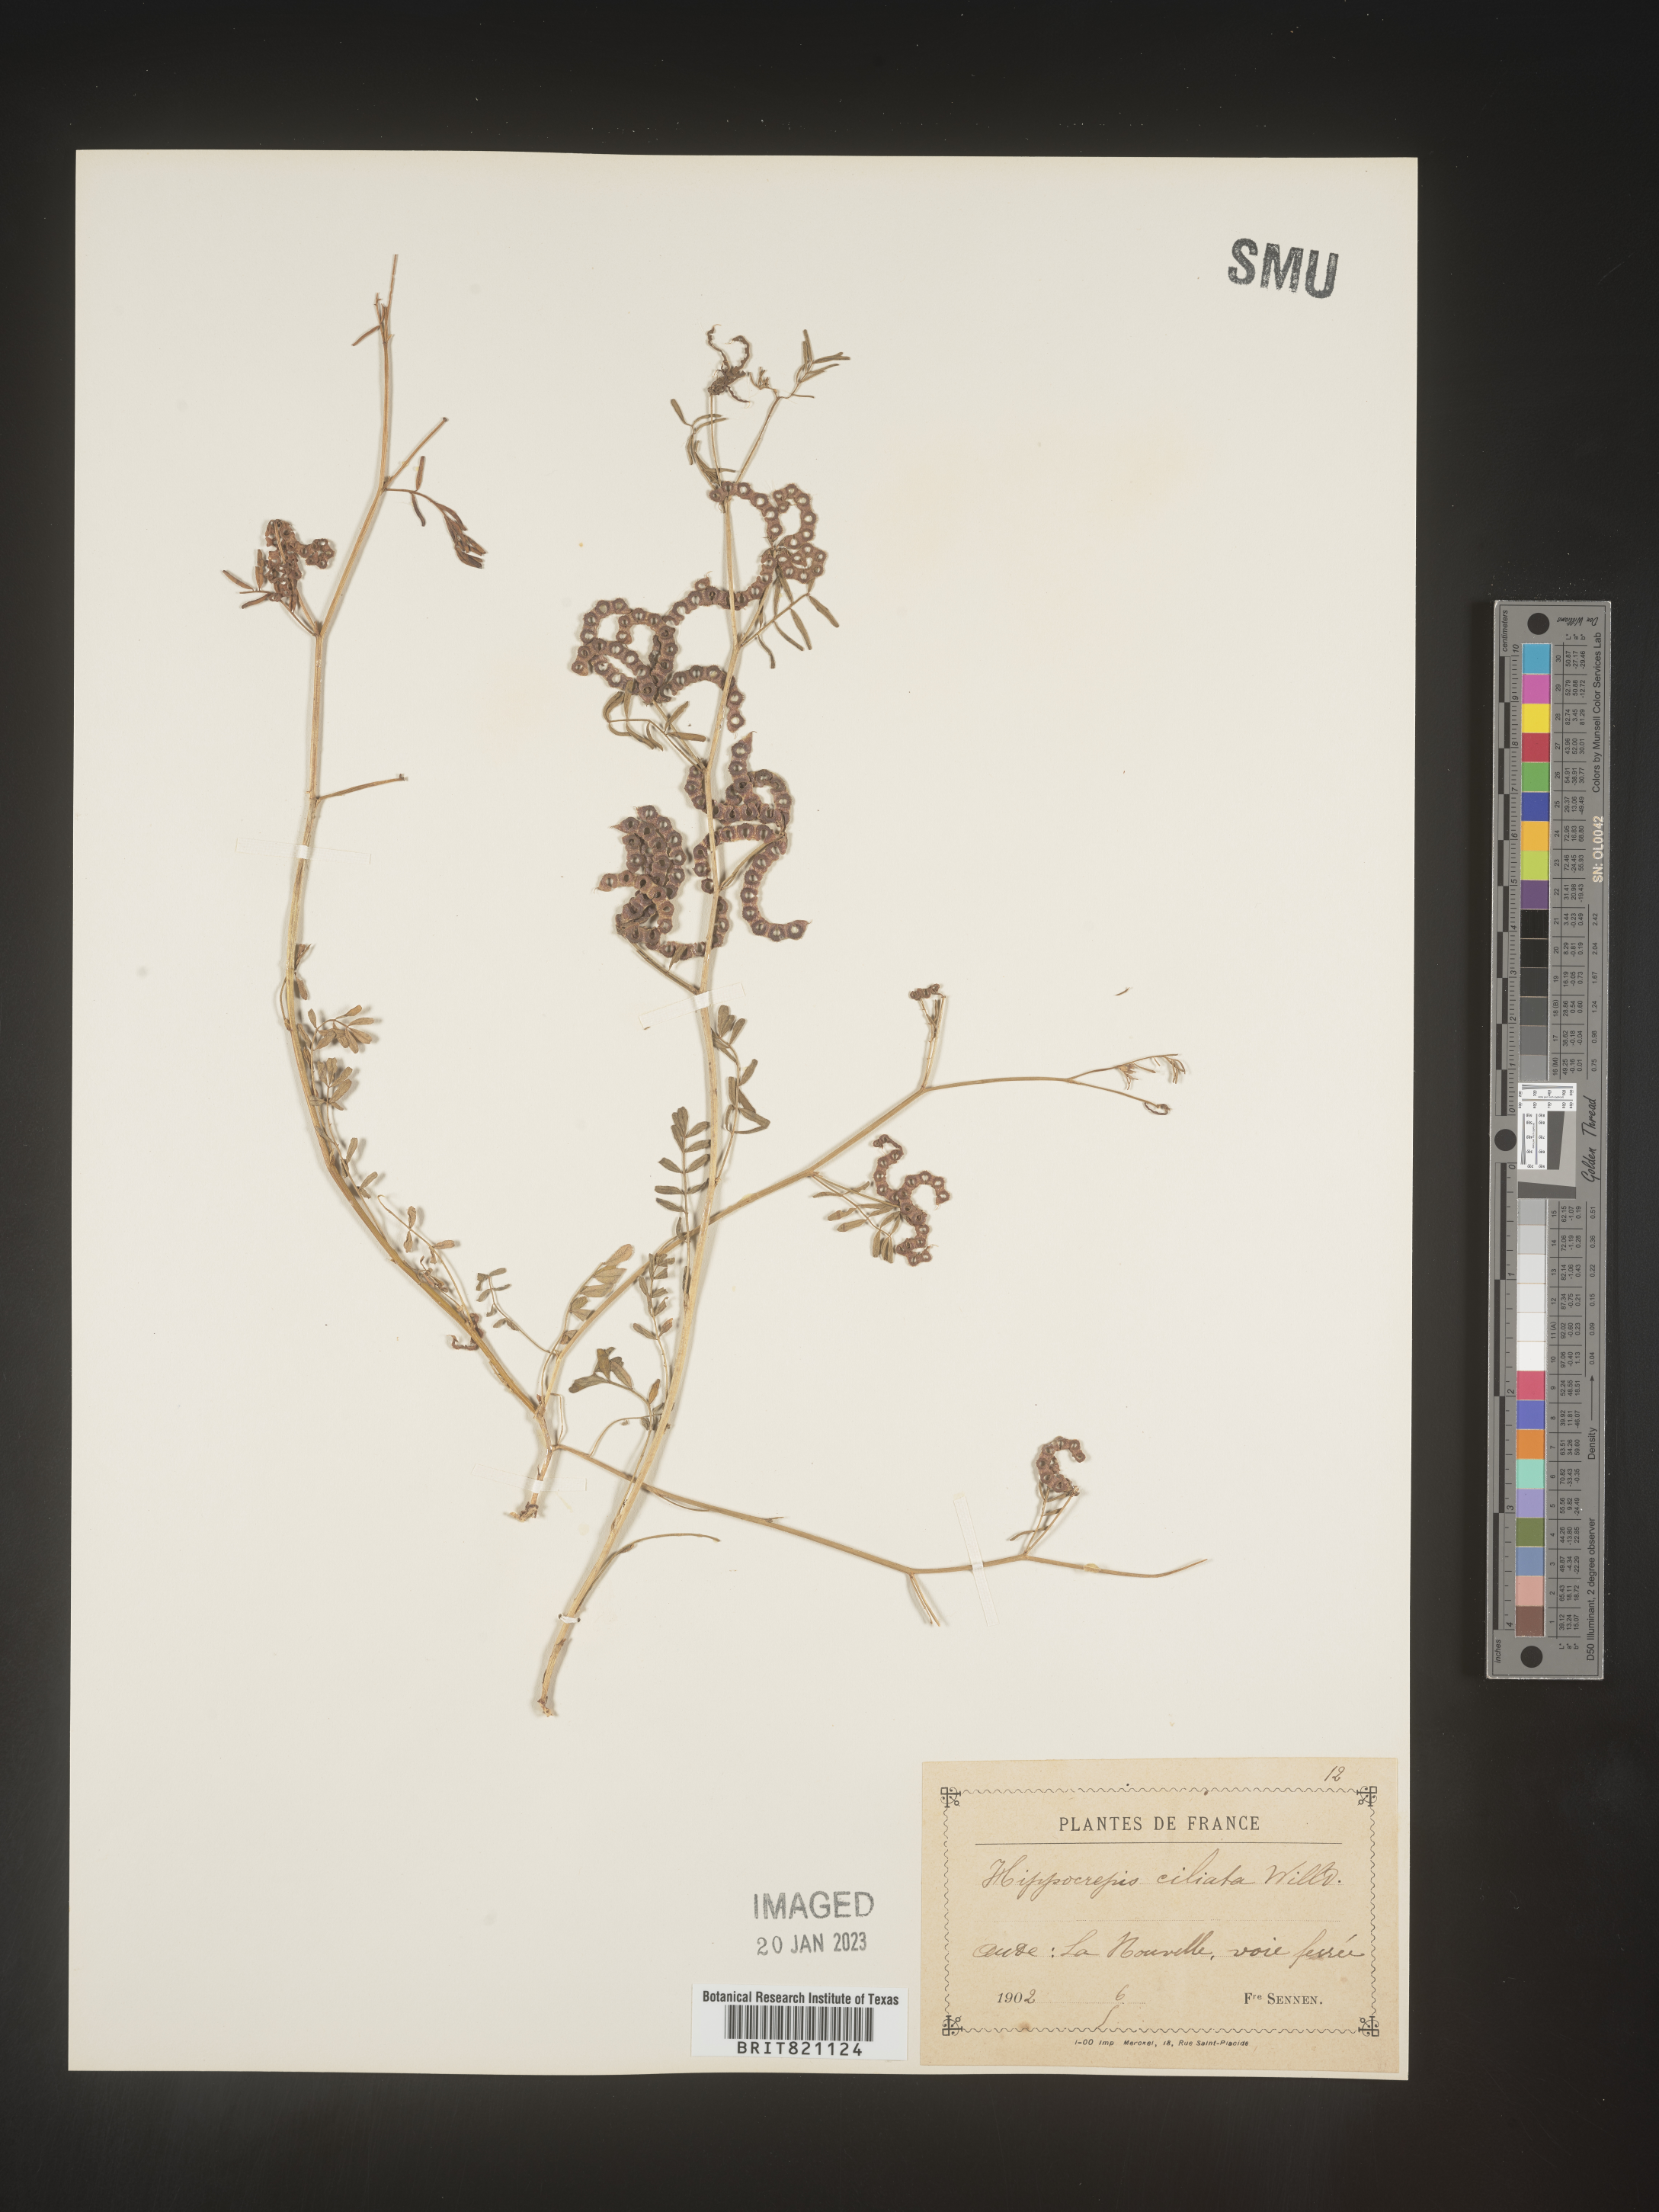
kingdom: Plantae
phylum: Tracheophyta
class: Magnoliopsida
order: Fabales
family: Fabaceae
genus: Hippocrepis
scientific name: Hippocrepis
